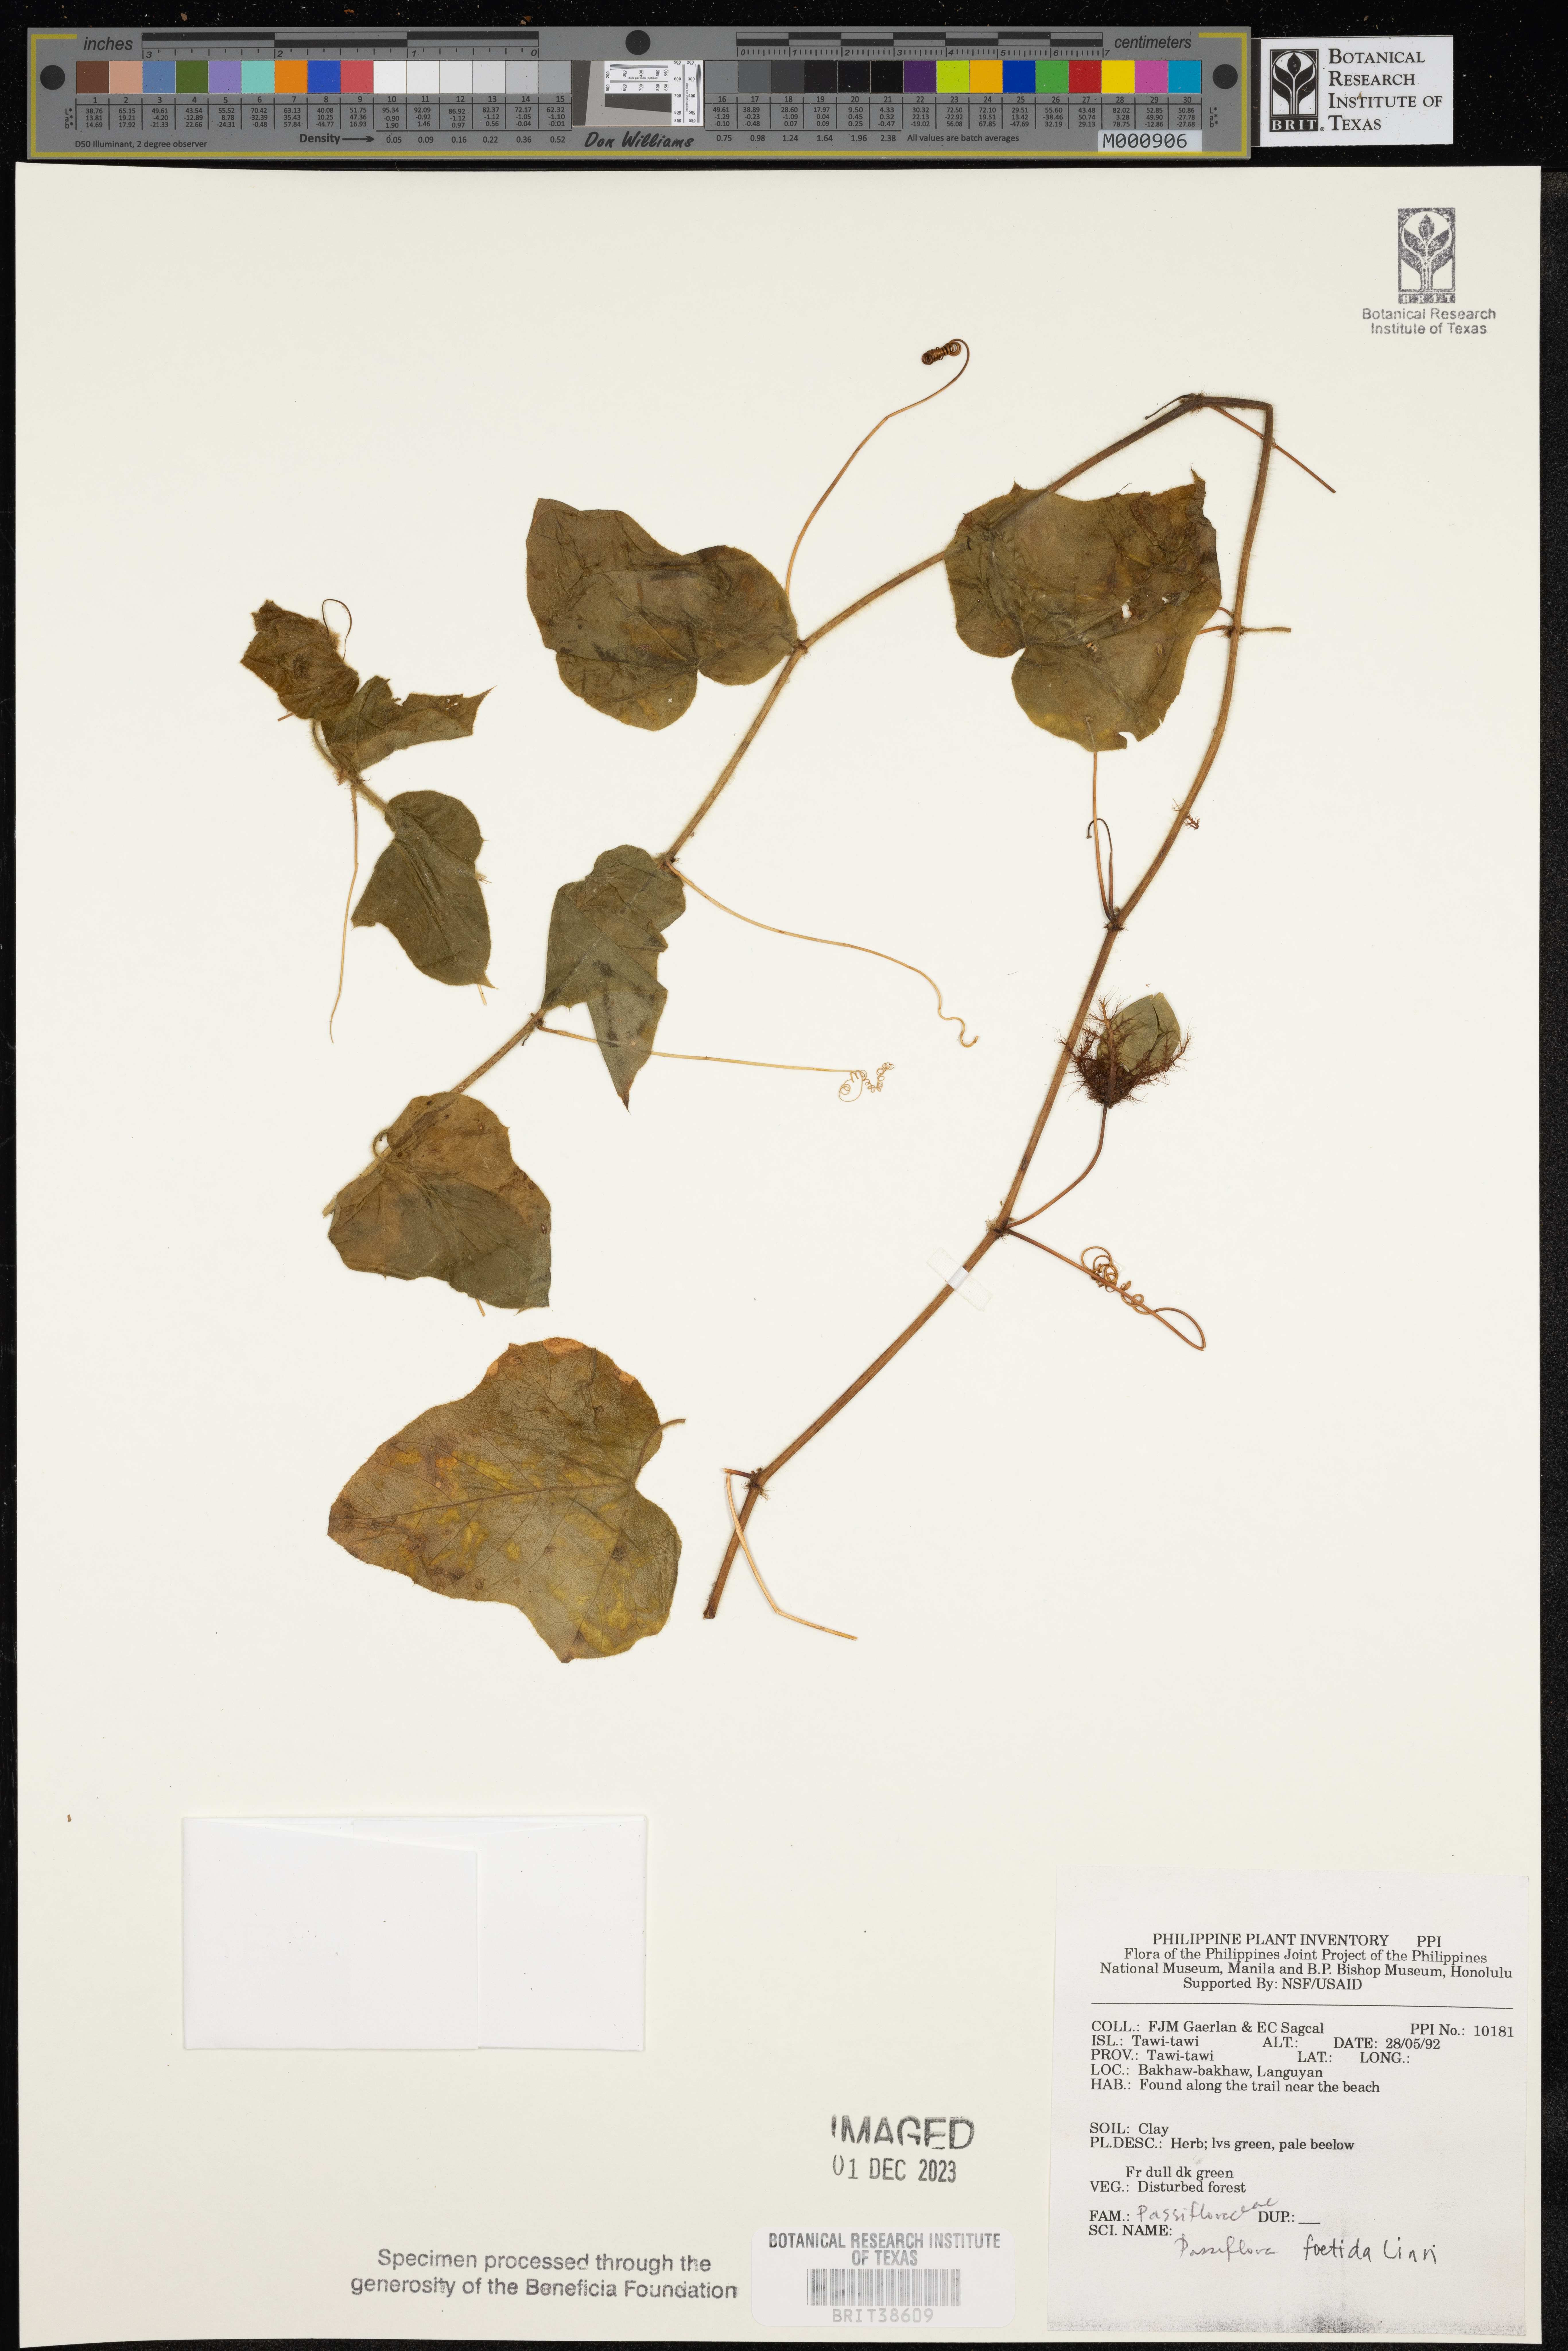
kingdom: Plantae
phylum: Tracheophyta
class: Magnoliopsida
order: Malpighiales
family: Passifloraceae
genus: Passiflora
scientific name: Passiflora foetida
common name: Fetid passionflower
